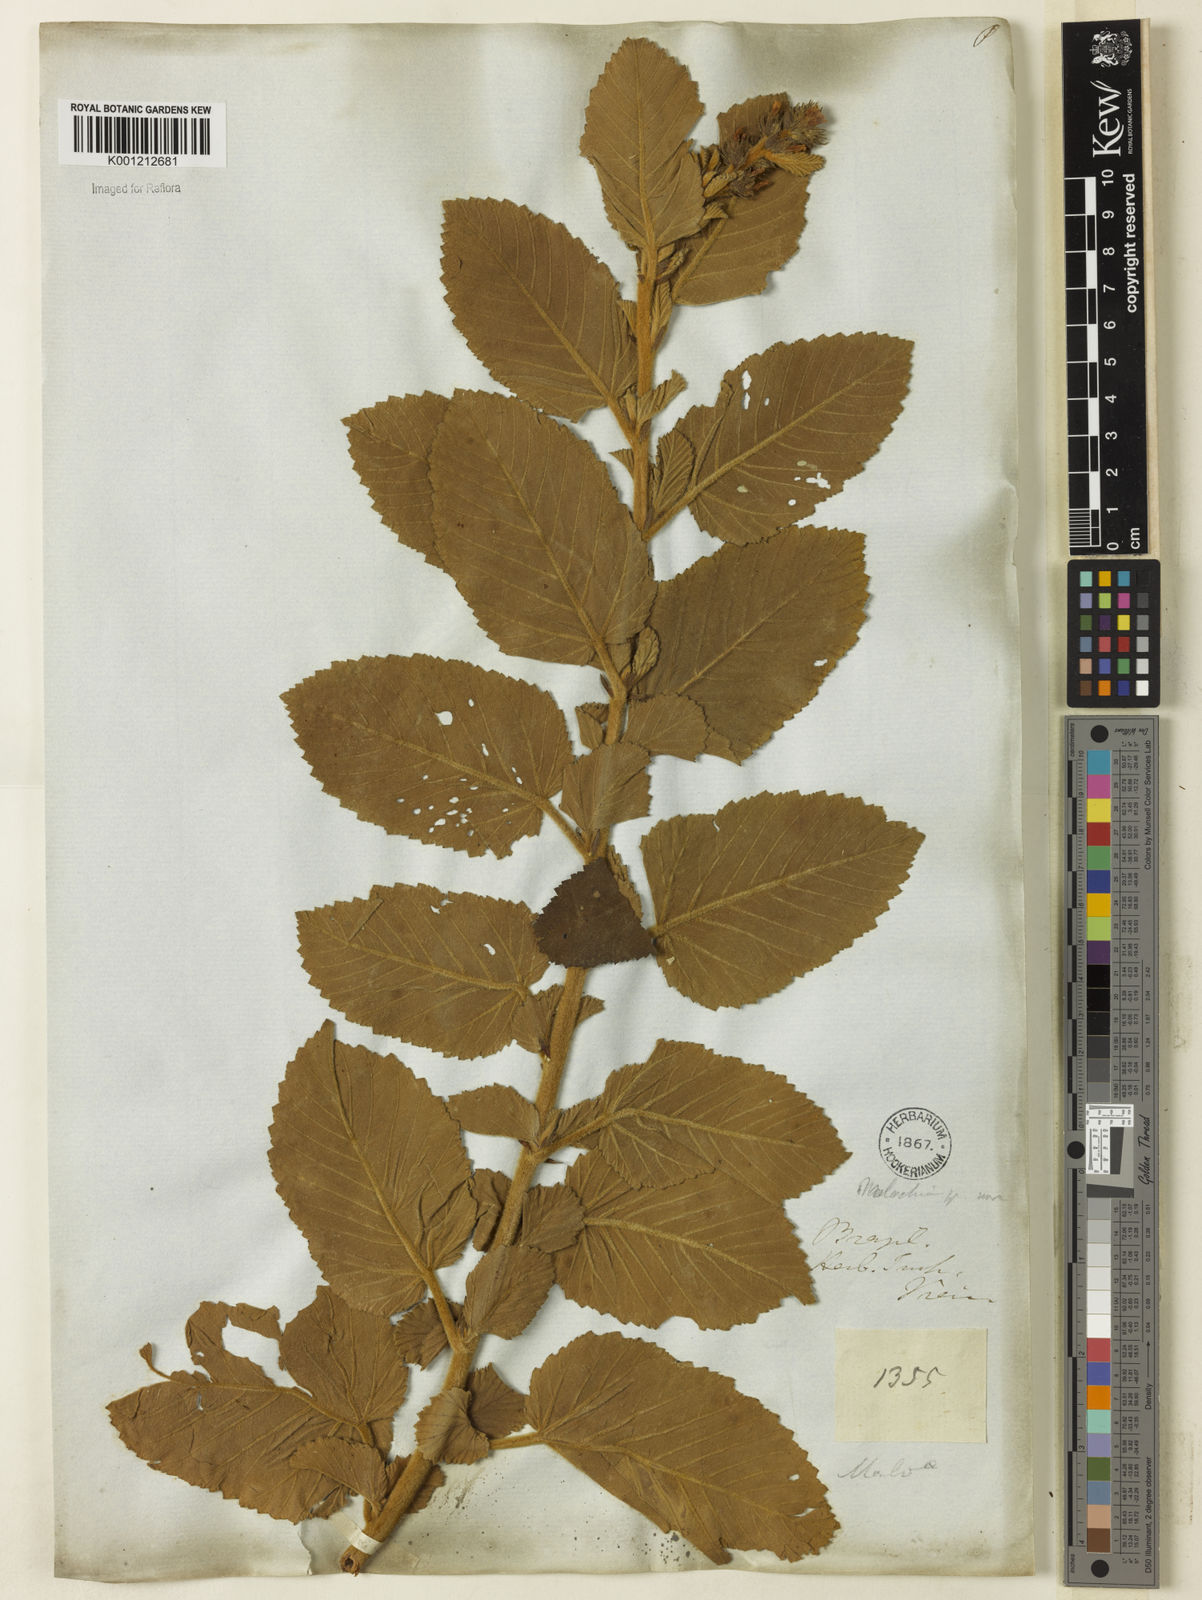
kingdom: Plantae
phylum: Tracheophyta
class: Magnoliopsida
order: Malvales
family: Malvaceae
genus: Melochia
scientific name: Melochia spicata
